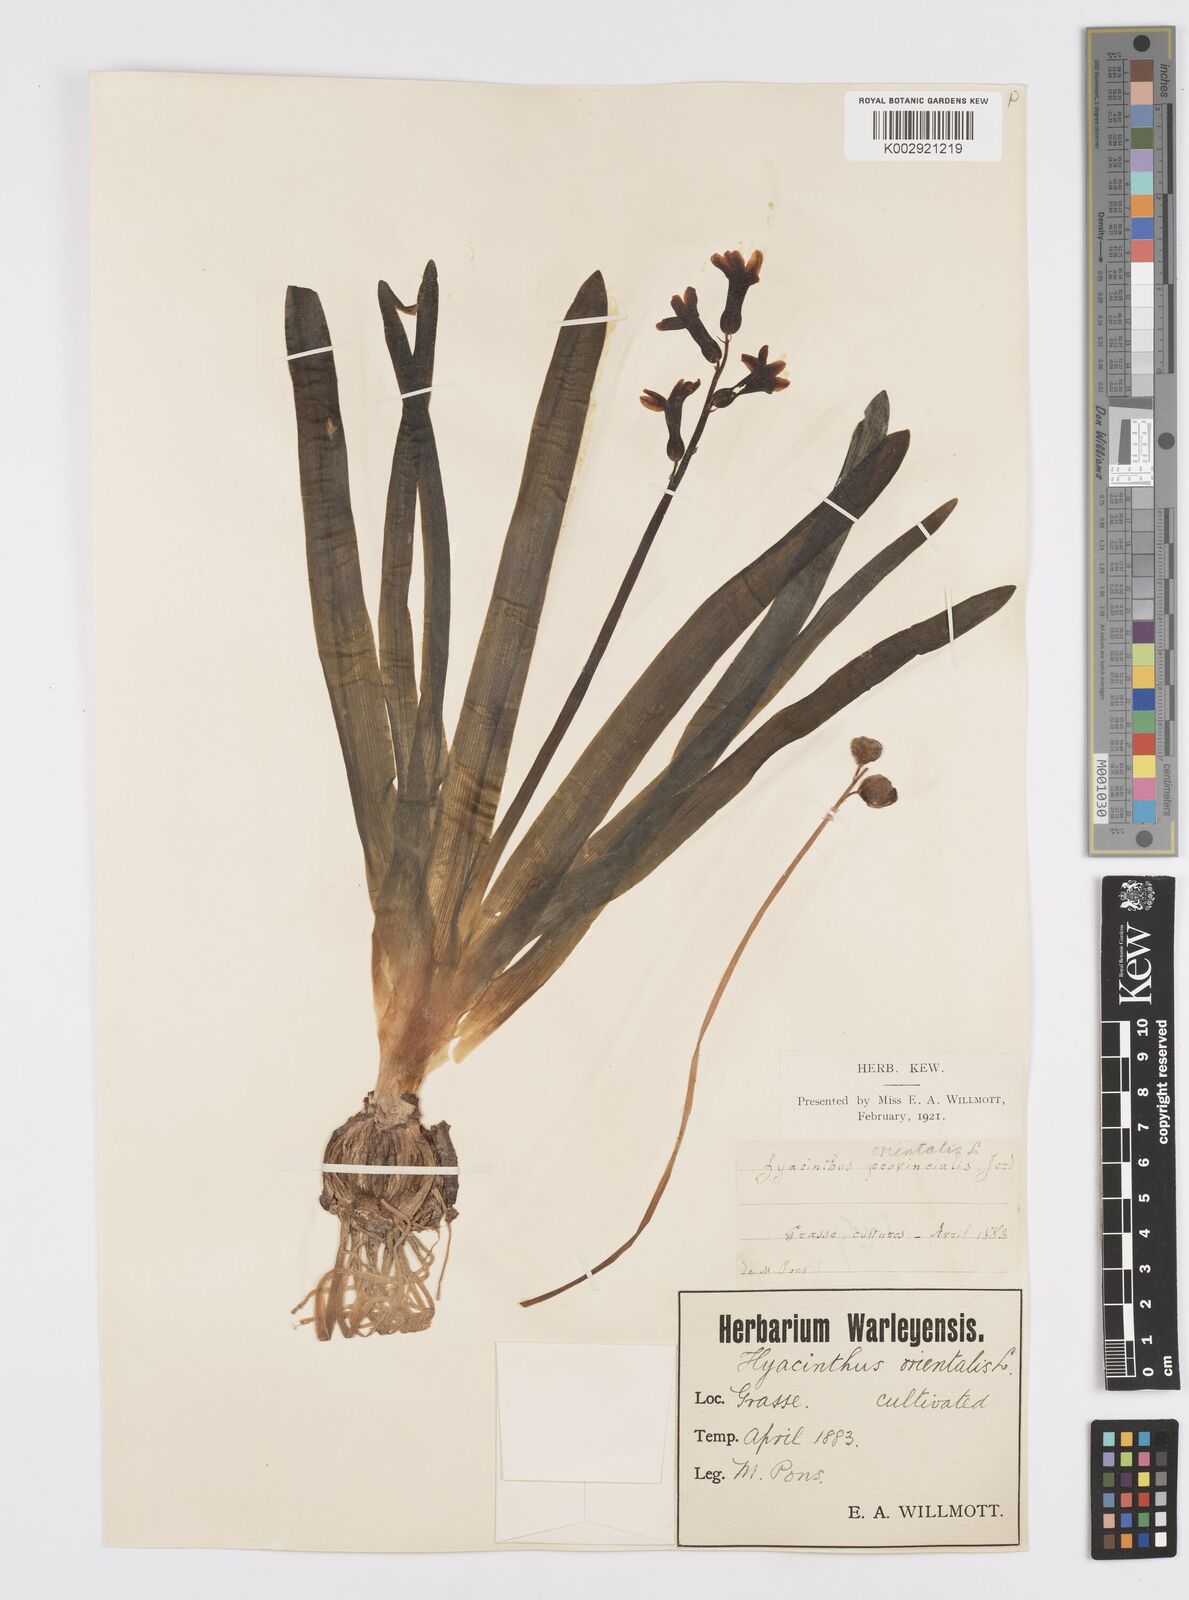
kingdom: Plantae
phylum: Tracheophyta
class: Liliopsida
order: Asparagales
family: Asparagaceae
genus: Hyacinthus
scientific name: Hyacinthus orientalis
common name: Hyacinth
